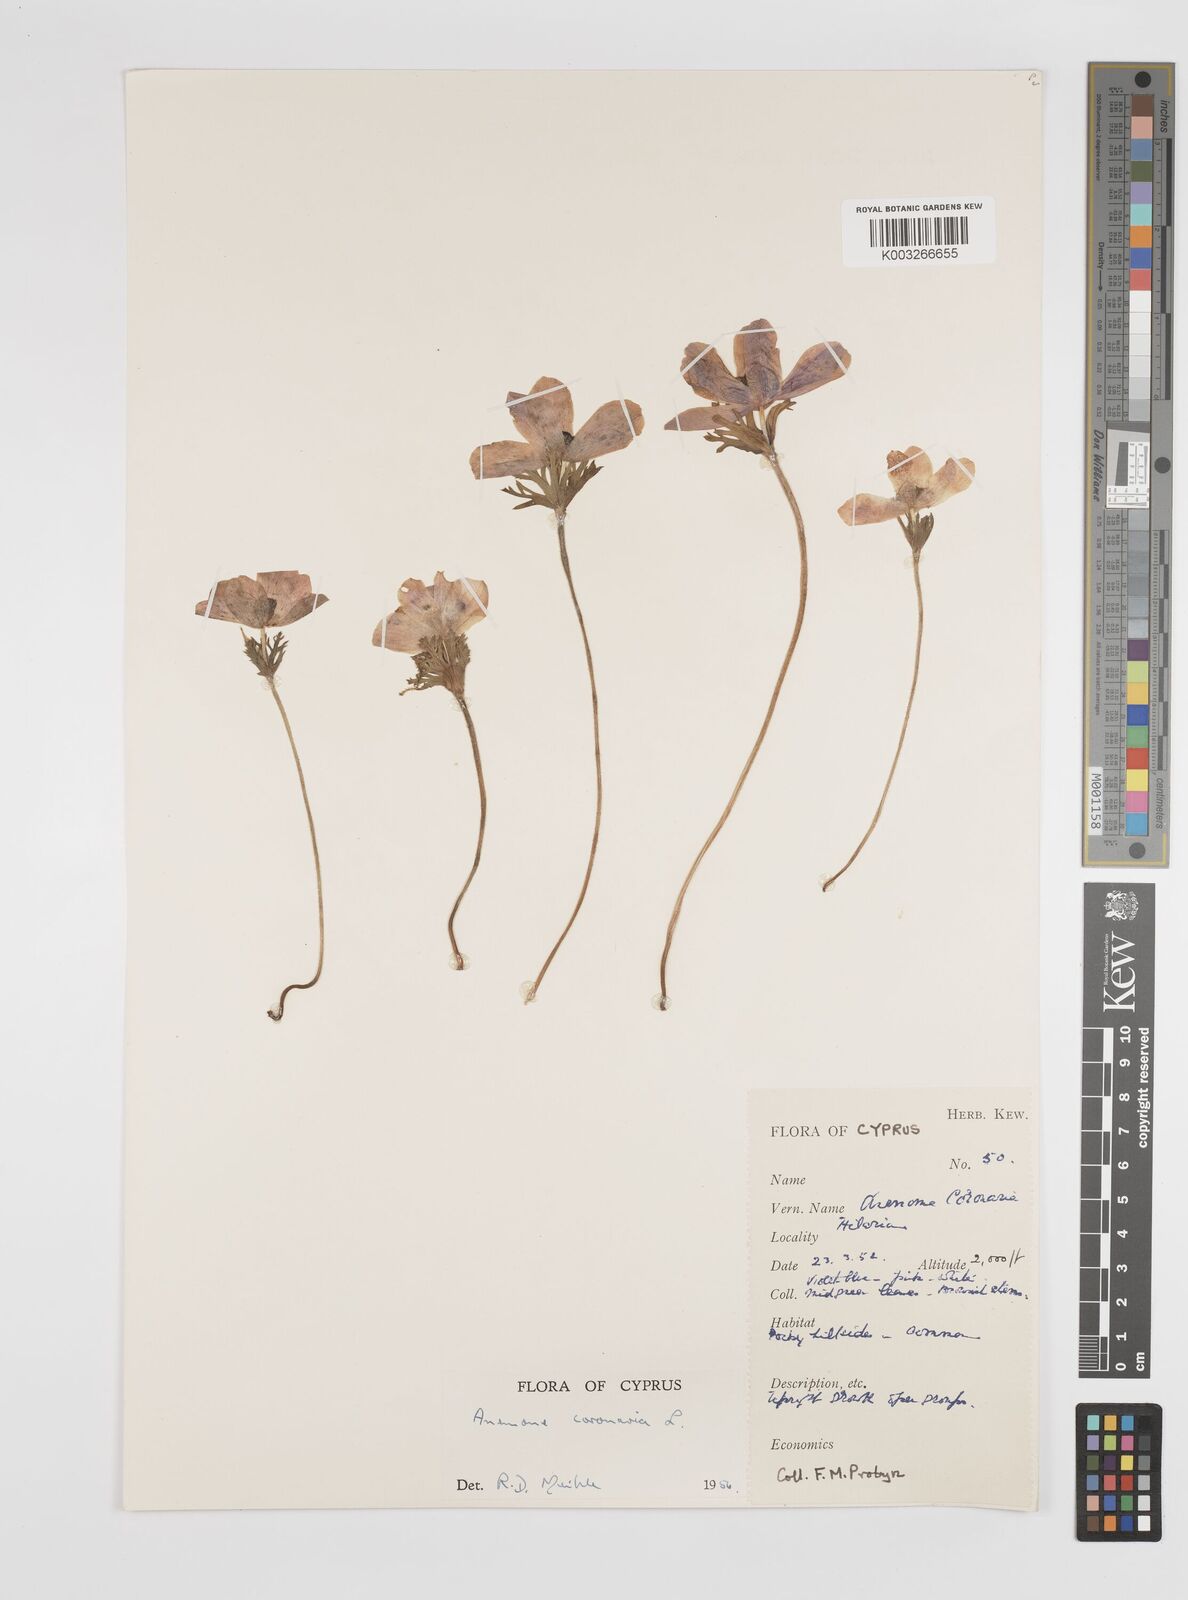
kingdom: Plantae
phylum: Tracheophyta
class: Magnoliopsida
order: Ranunculales
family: Ranunculaceae
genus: Anemone
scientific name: Anemone coronaria
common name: Poppy anemone
